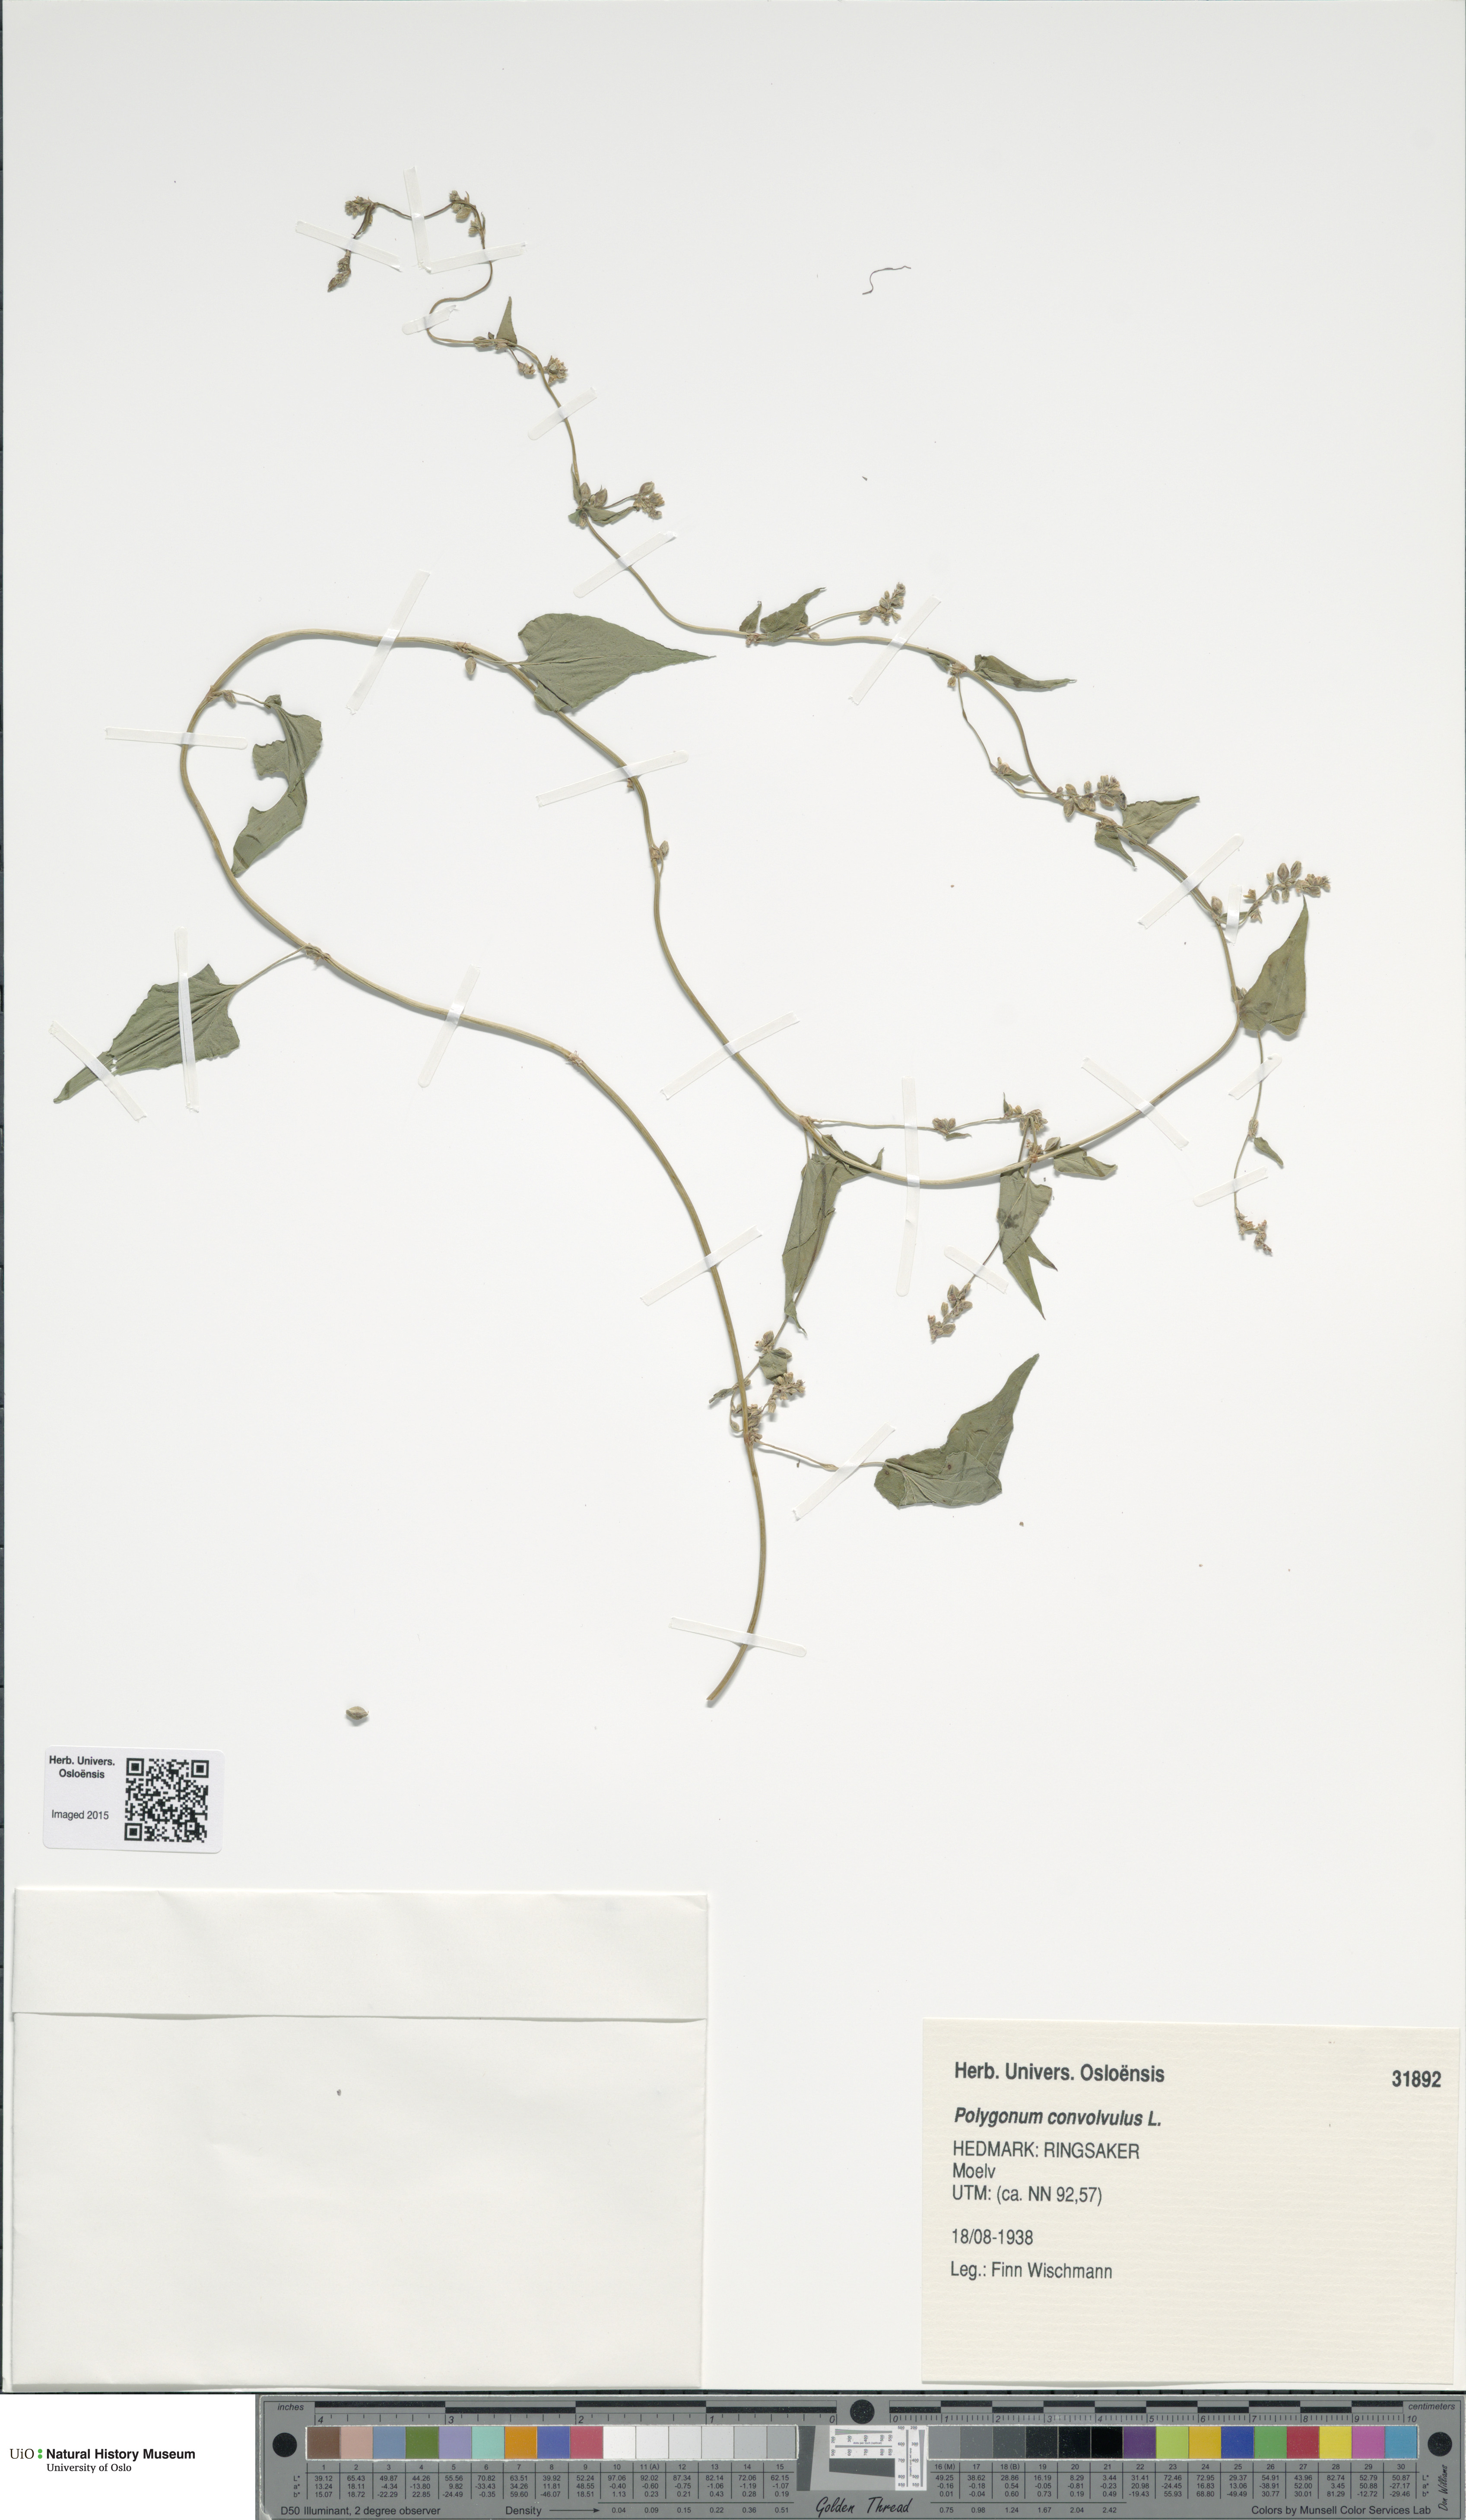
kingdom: Plantae
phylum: Tracheophyta
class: Magnoliopsida
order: Caryophyllales
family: Polygonaceae
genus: Fallopia
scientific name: Fallopia convolvulus
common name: Black bindweed
